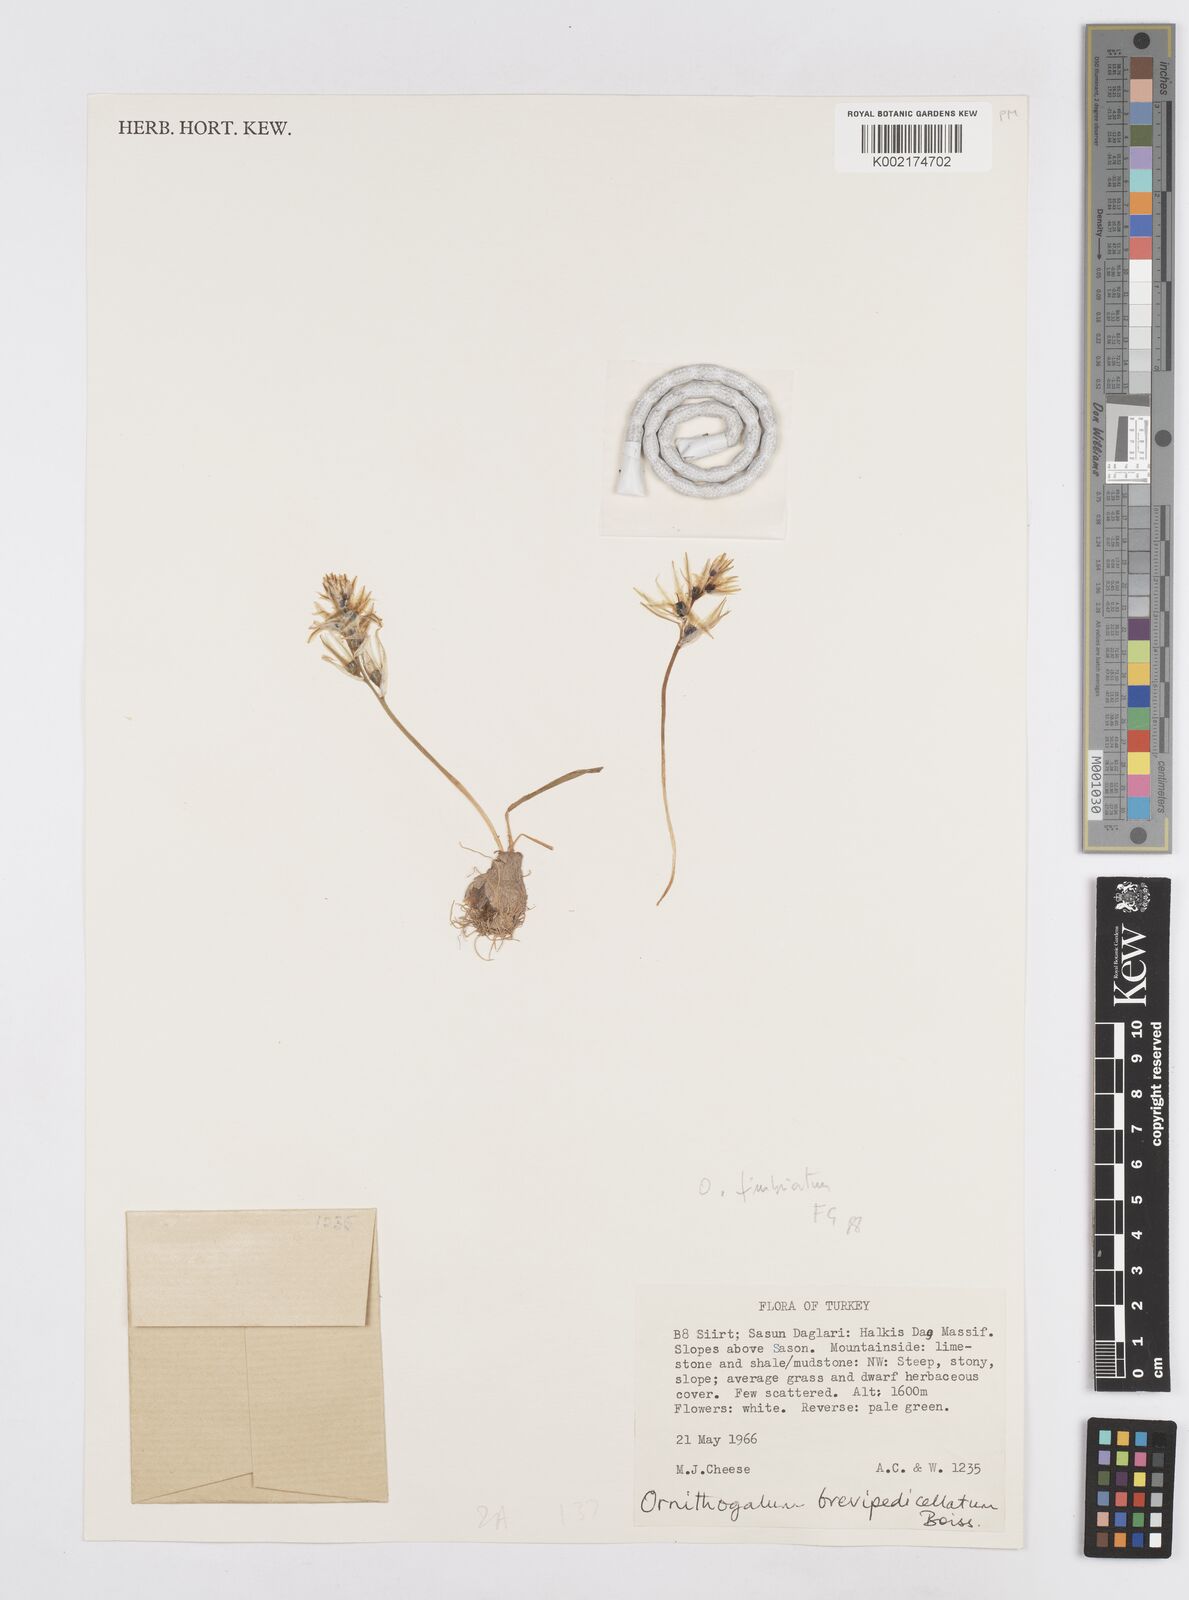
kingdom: Plantae
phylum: Tracheophyta
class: Liliopsida
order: Asparagales
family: Asparagaceae
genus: Ornithogalum
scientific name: Ornithogalum fimbriatum
